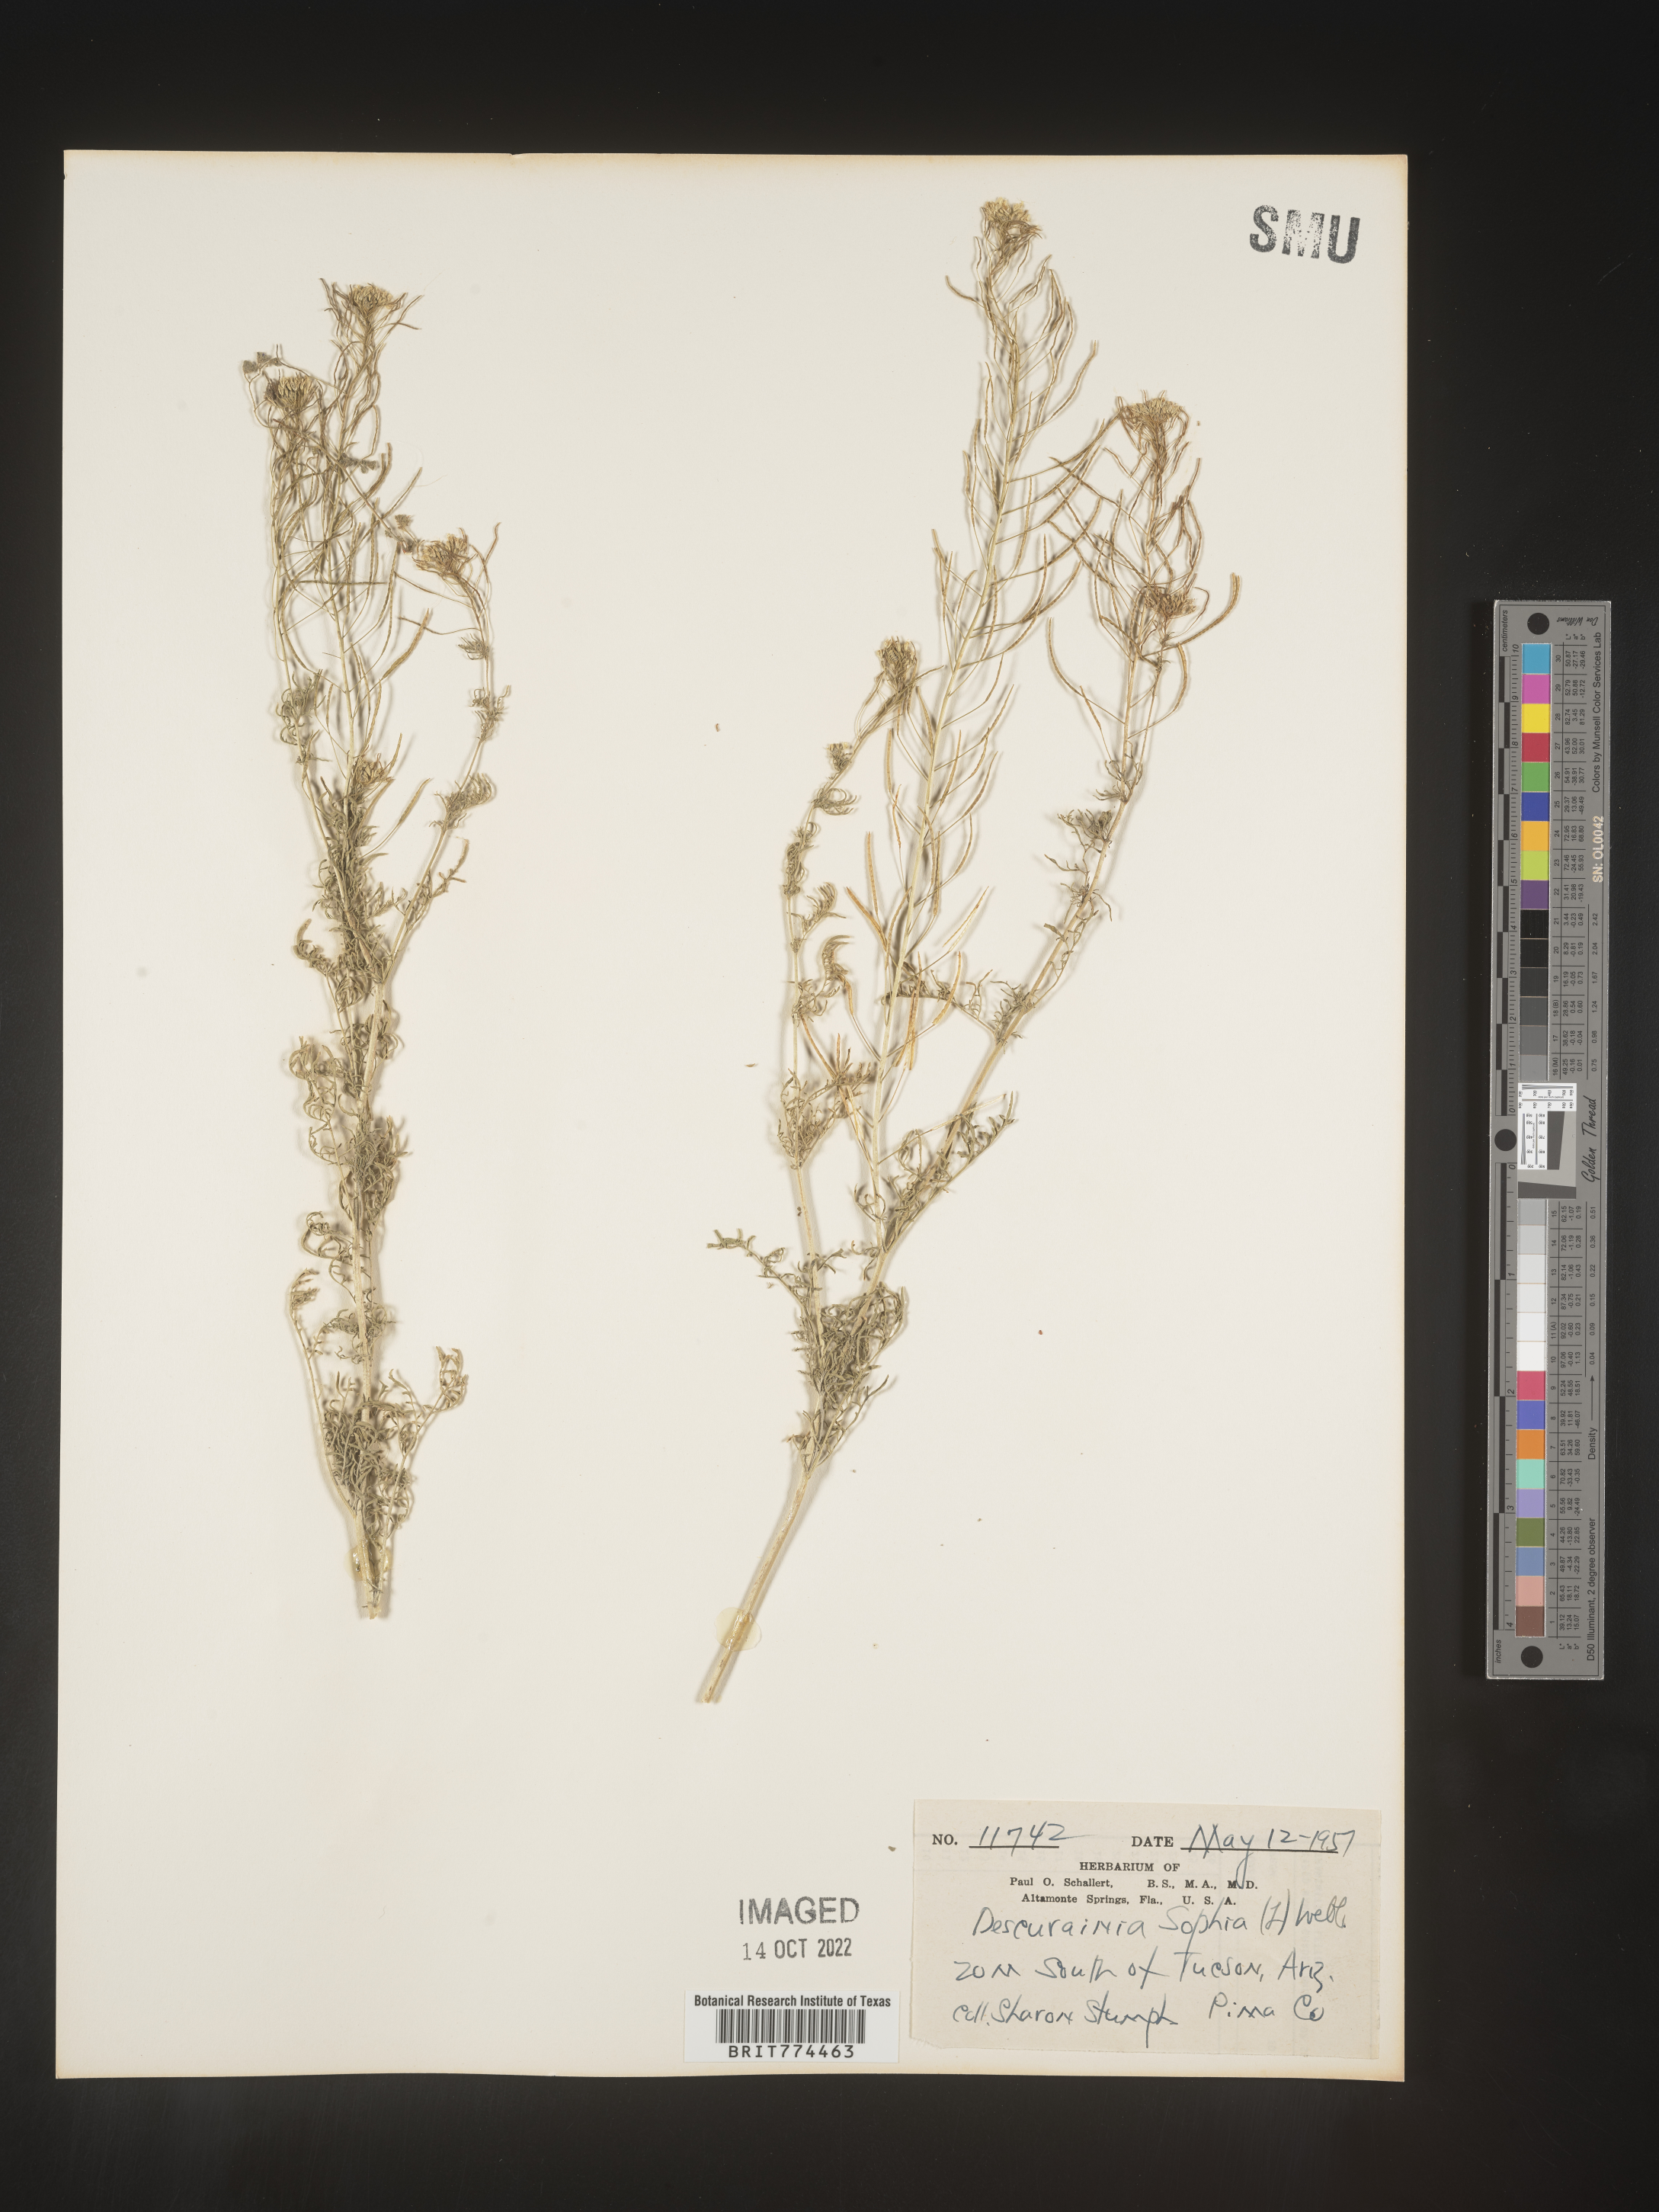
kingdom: Plantae
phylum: Tracheophyta
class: Magnoliopsida
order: Brassicales
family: Brassicaceae
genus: Descurainia
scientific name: Descurainia sophia
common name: Flixweed
